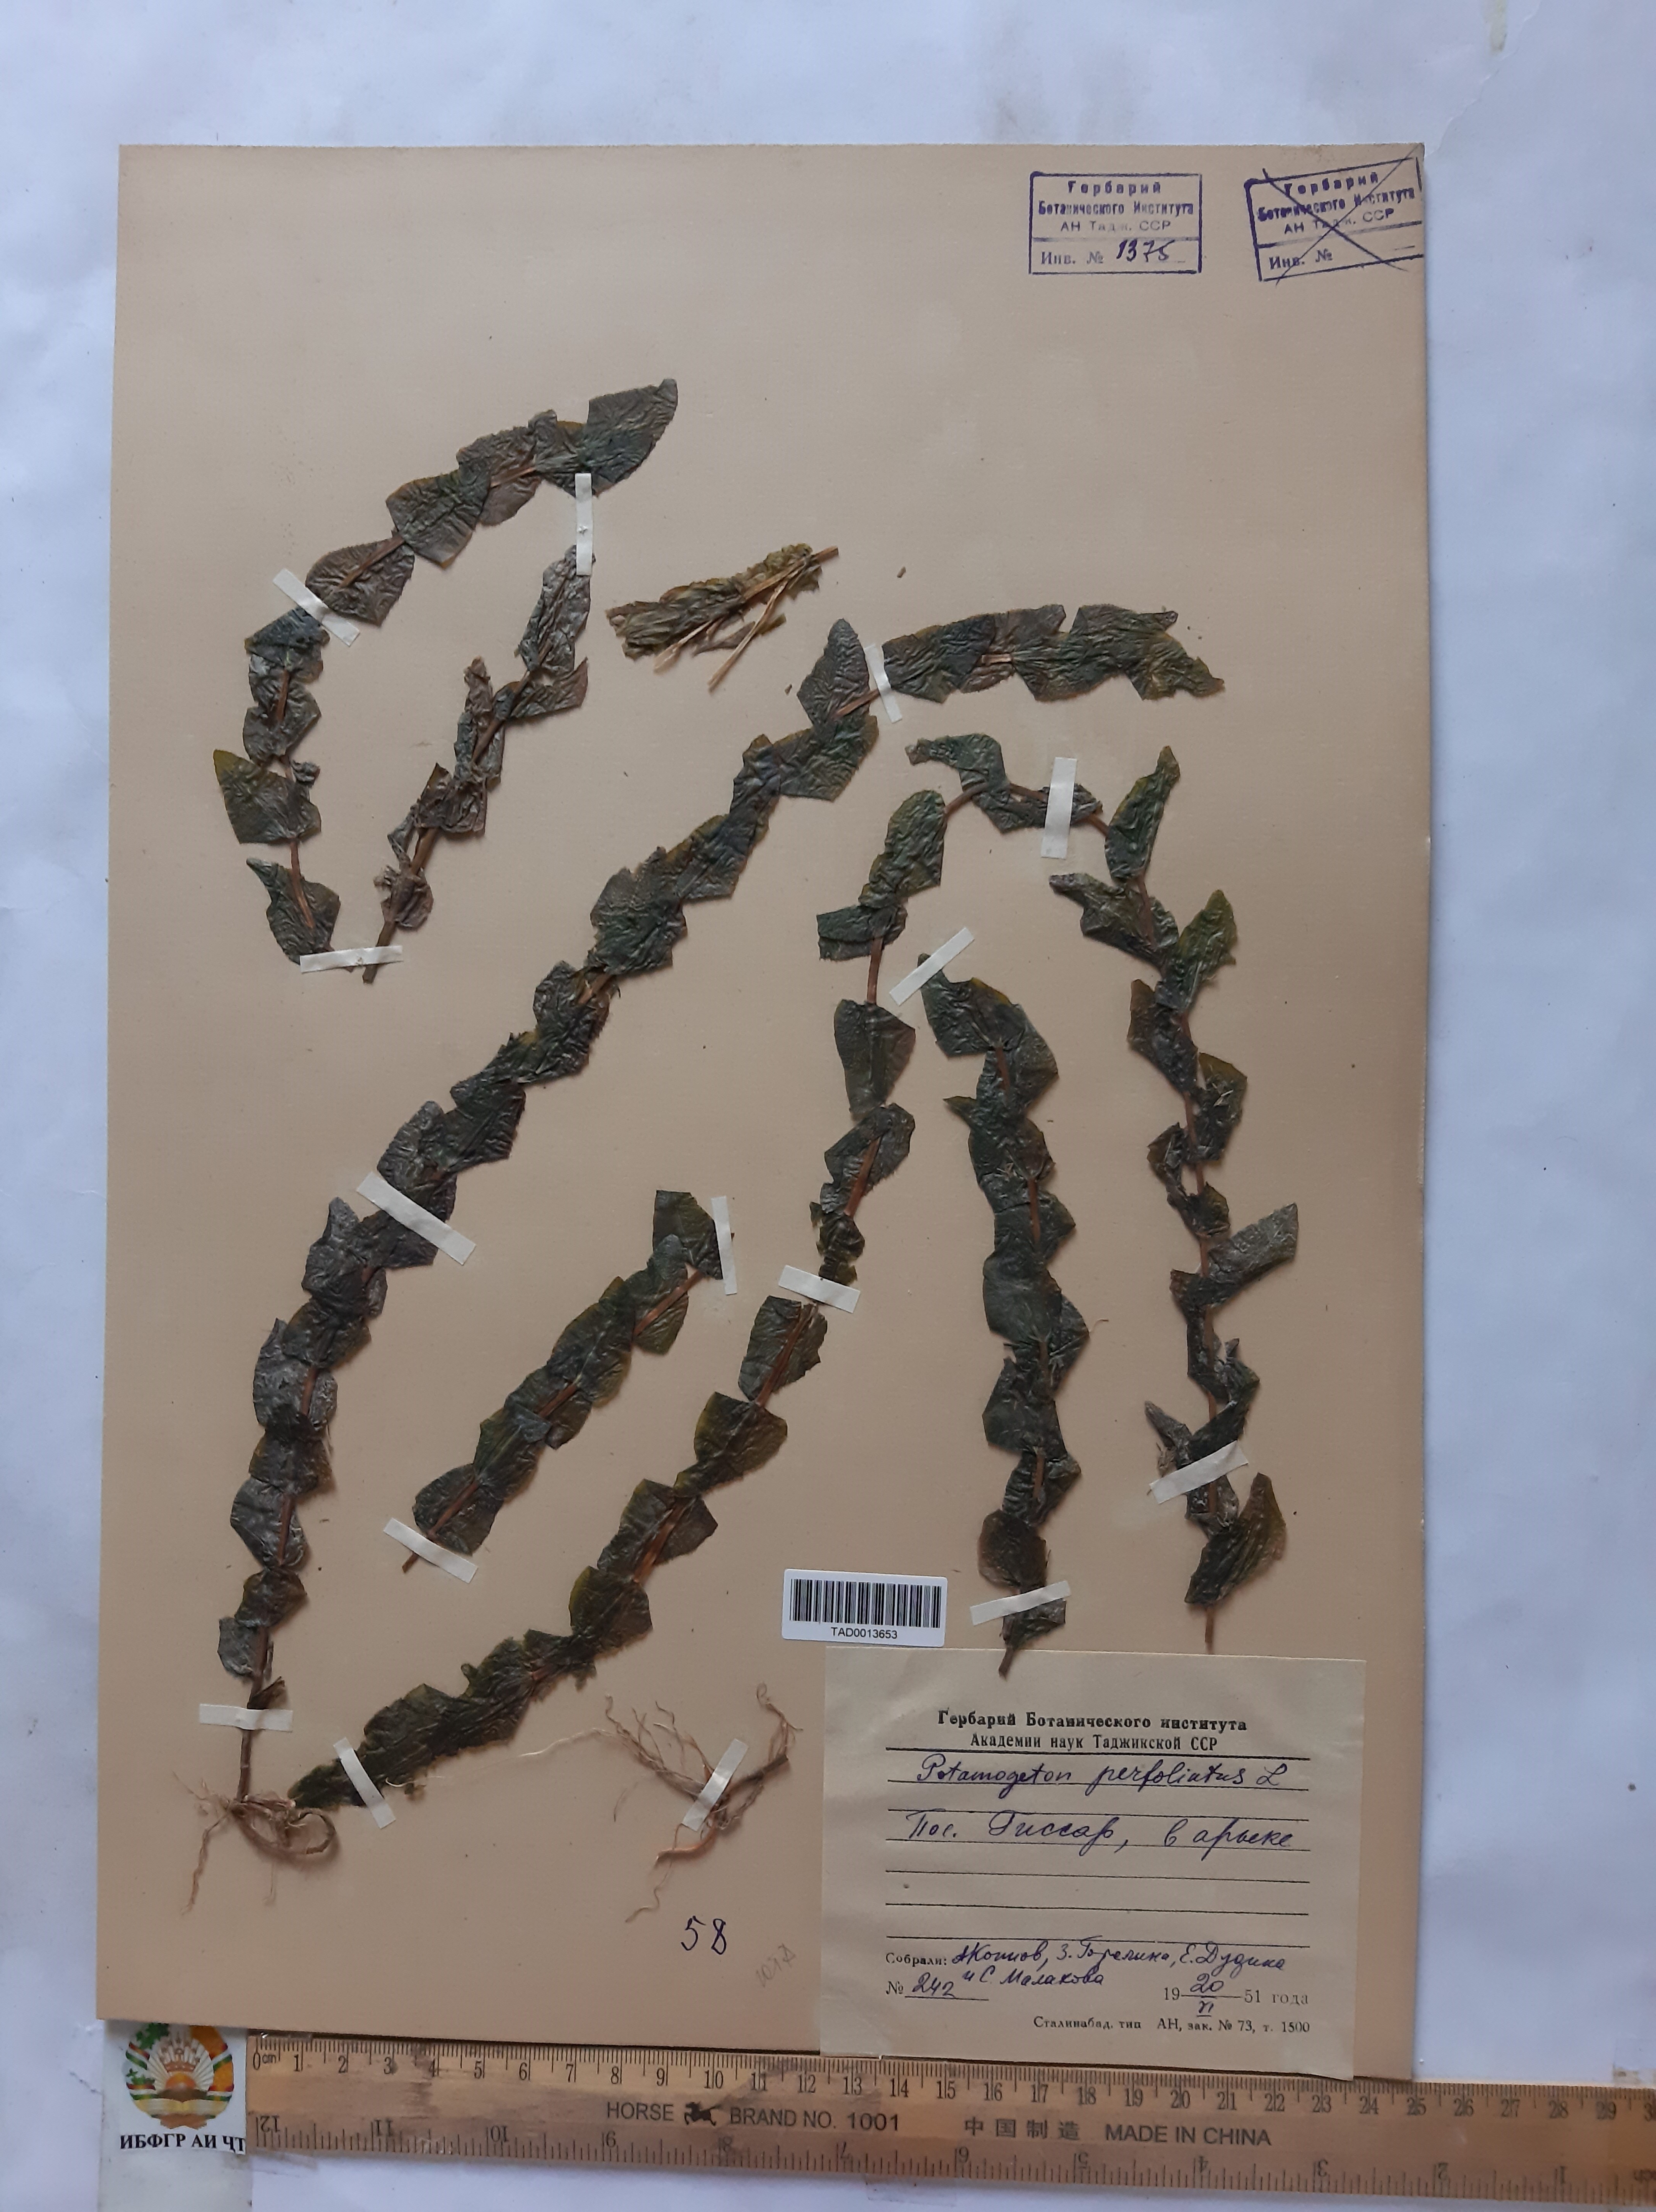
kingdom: Plantae
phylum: Tracheophyta
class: Liliopsida
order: Alismatales
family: Potamogetonaceae
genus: Potamogeton
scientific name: Potamogeton perfoliatus
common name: Perfoliate pondweed
